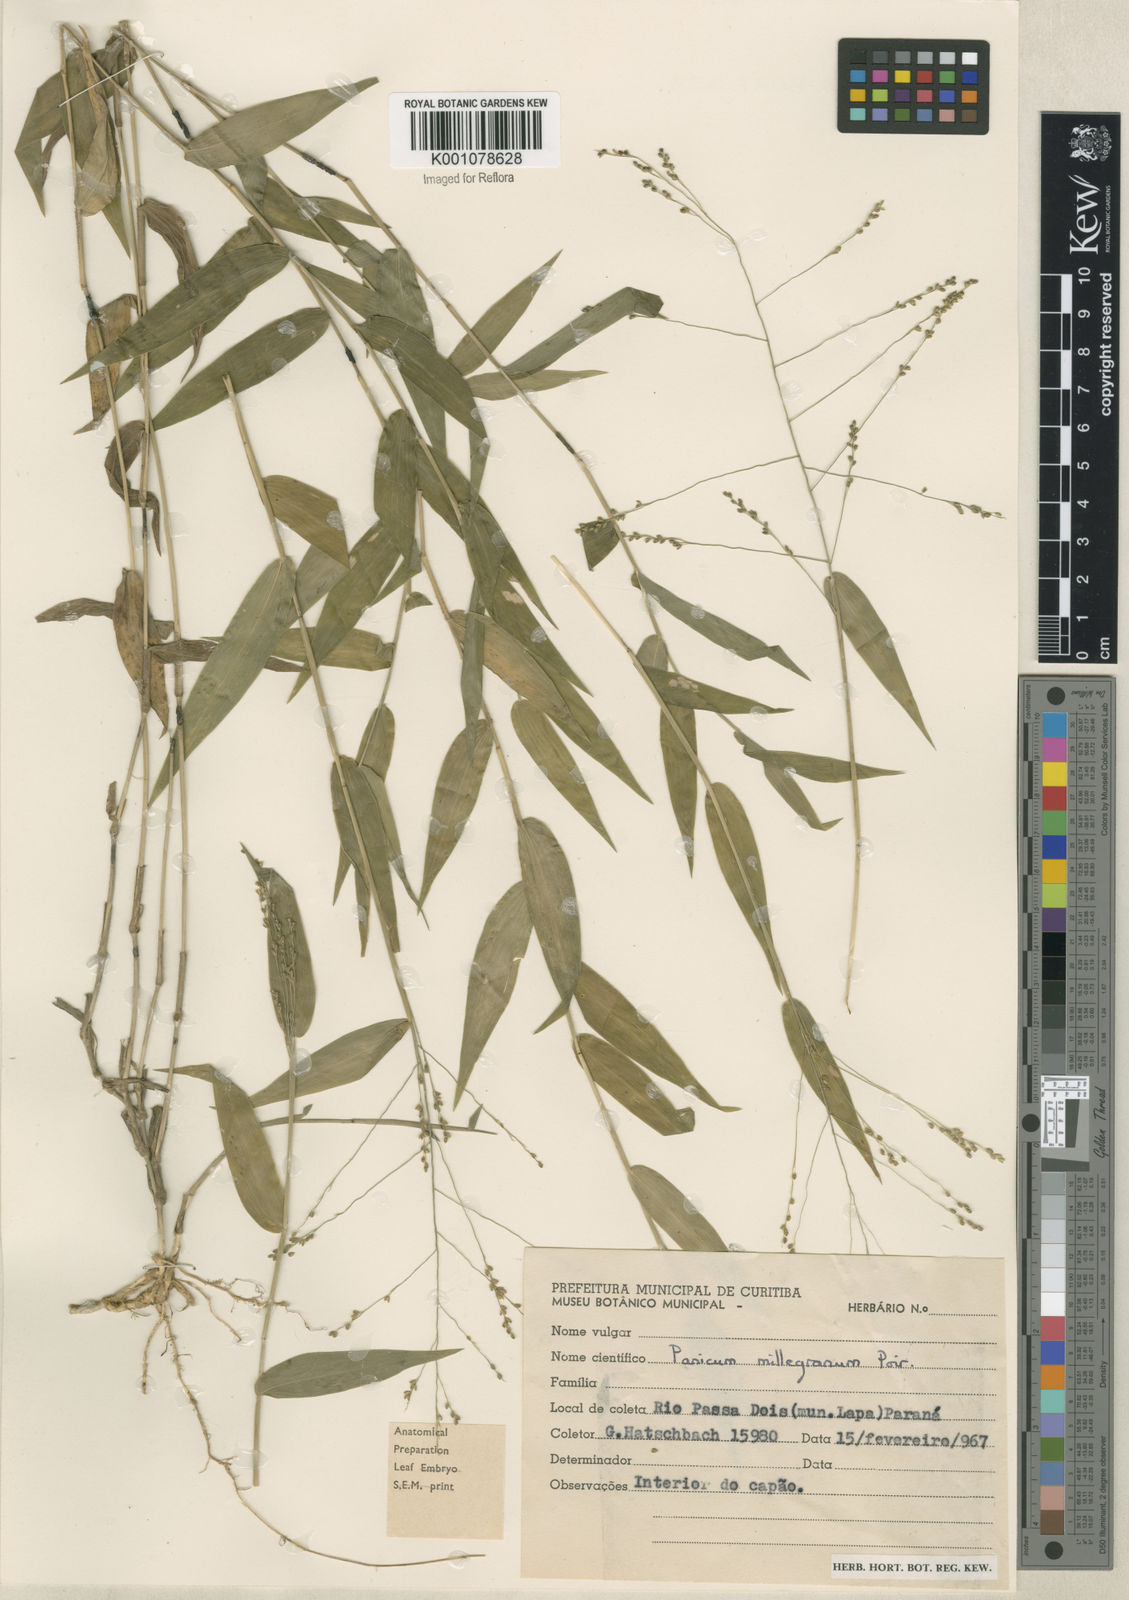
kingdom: Plantae
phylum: Tracheophyta
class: Liliopsida
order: Poales
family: Poaceae
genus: Panicum
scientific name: Panicum sellowii
